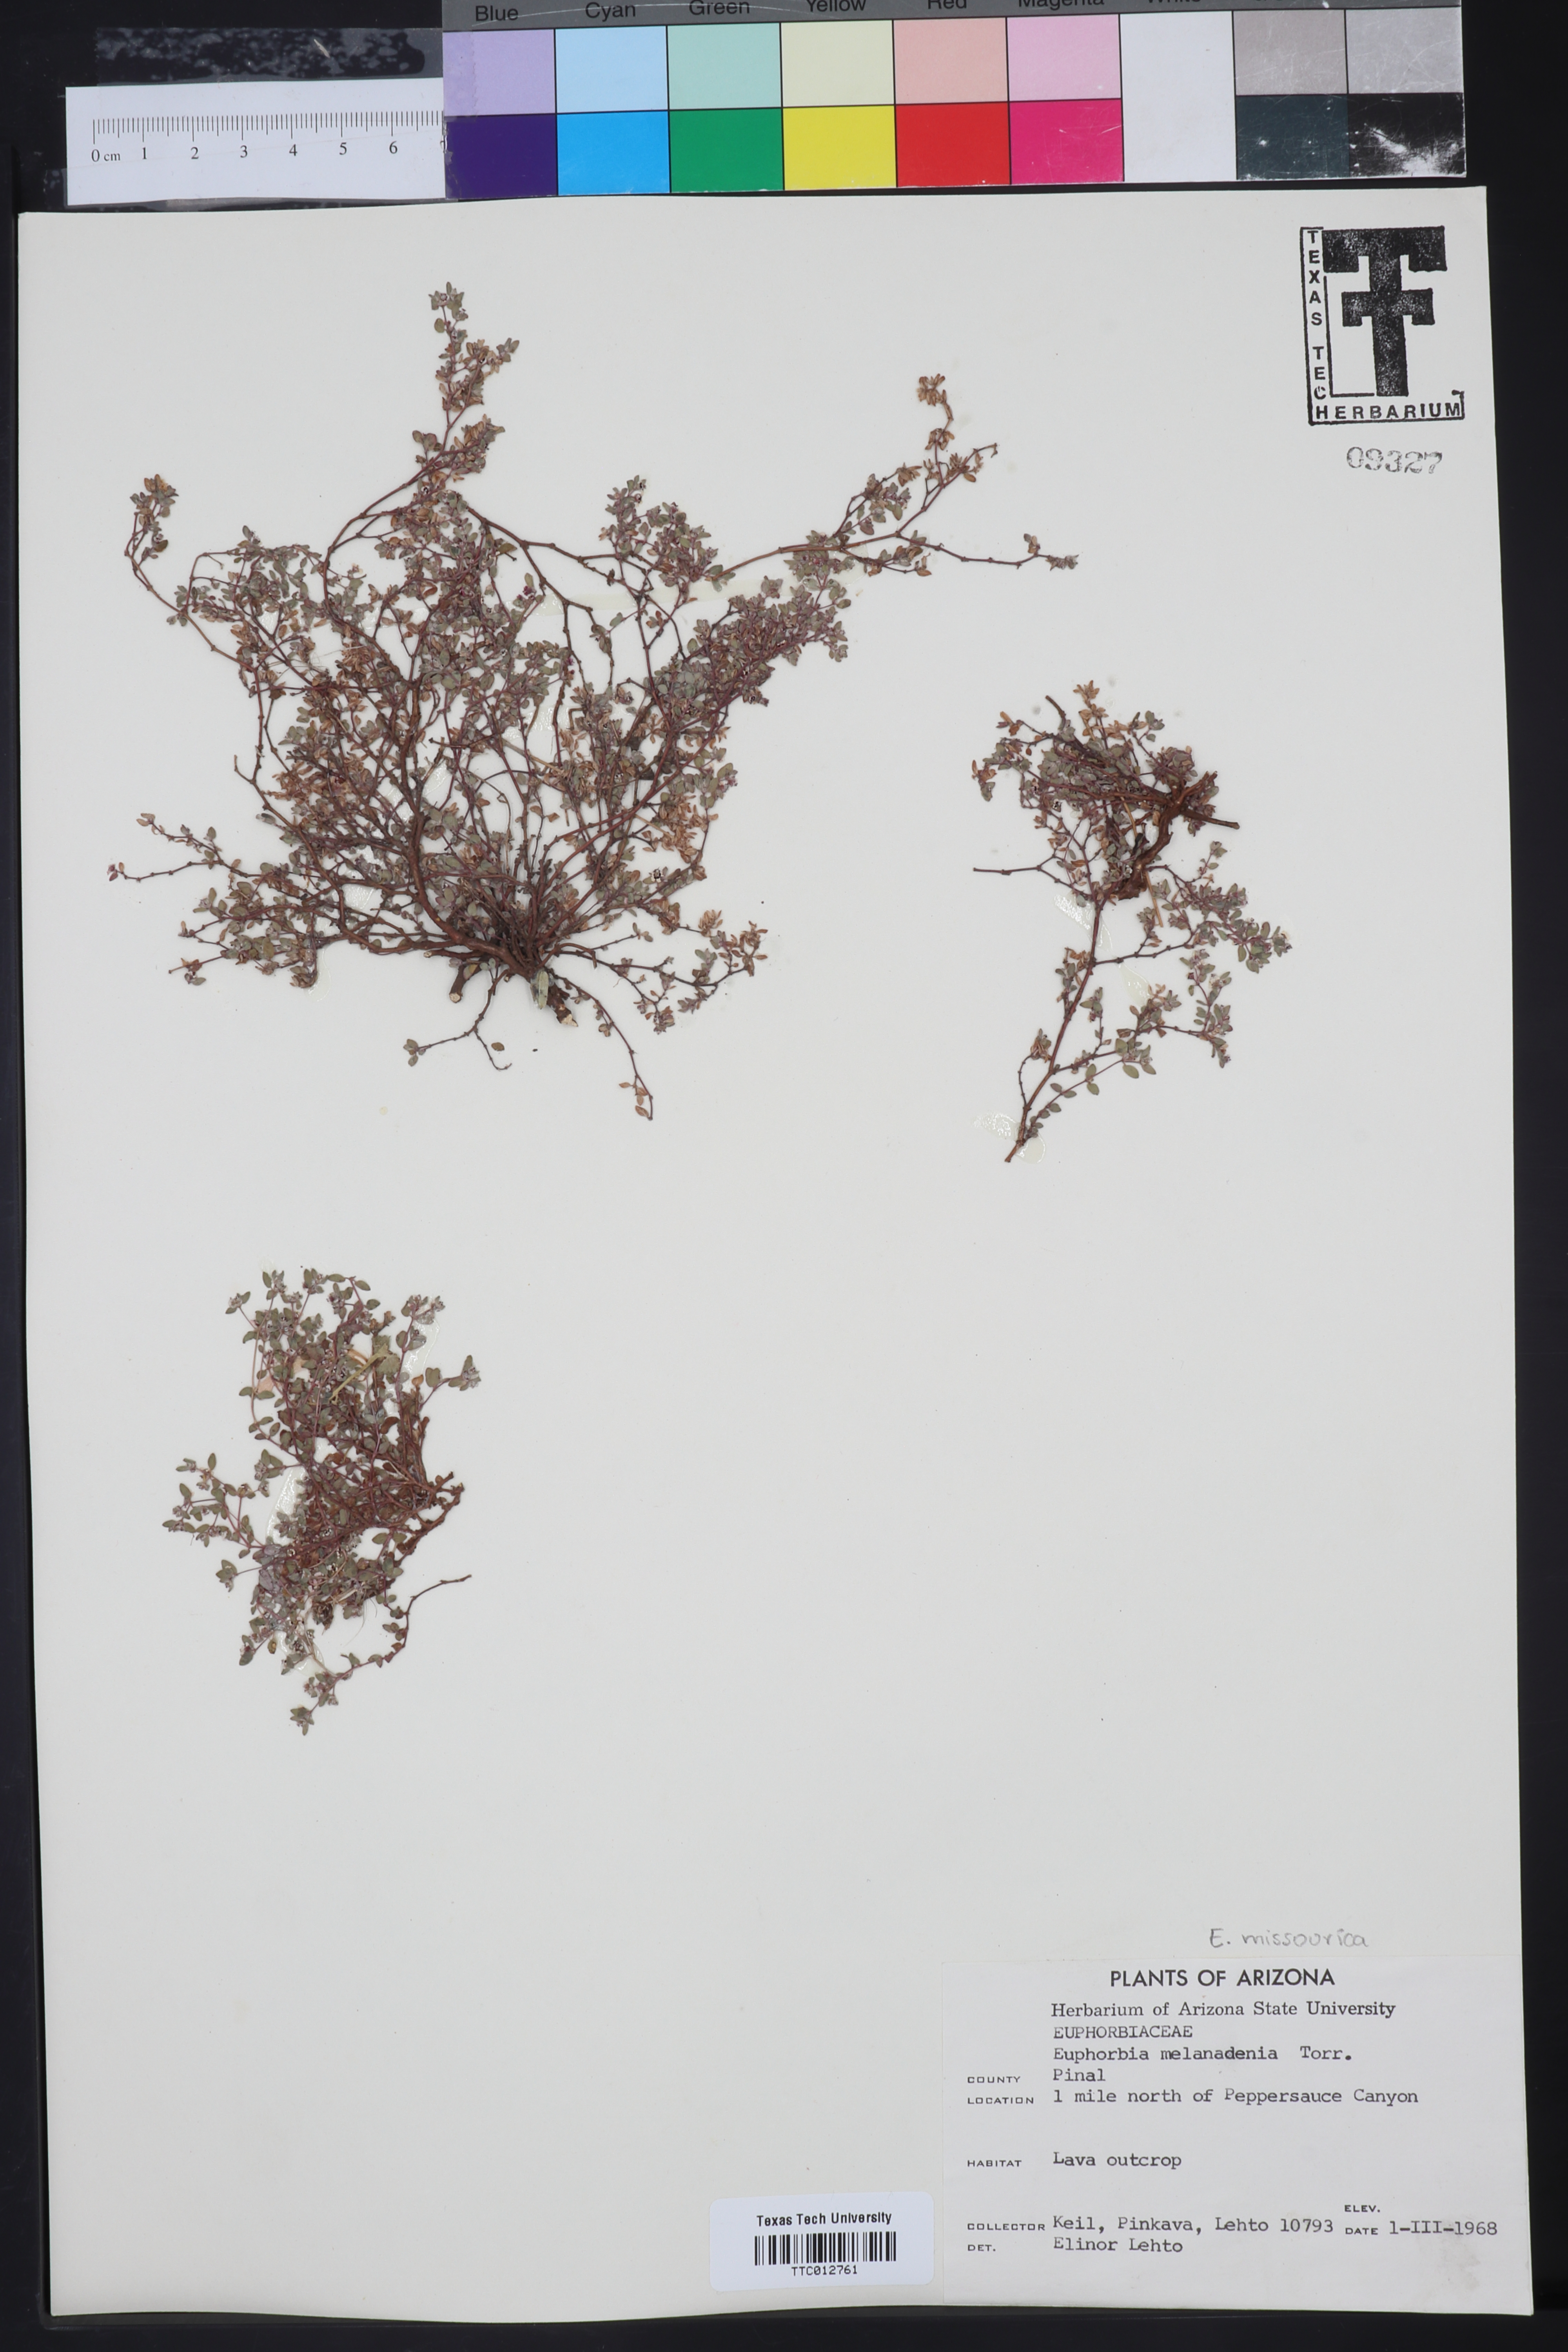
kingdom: Plantae
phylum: Tracheophyta
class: Magnoliopsida
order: Malpighiales
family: Euphorbiaceae
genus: Euphorbia
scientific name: Euphorbia melanadenia
